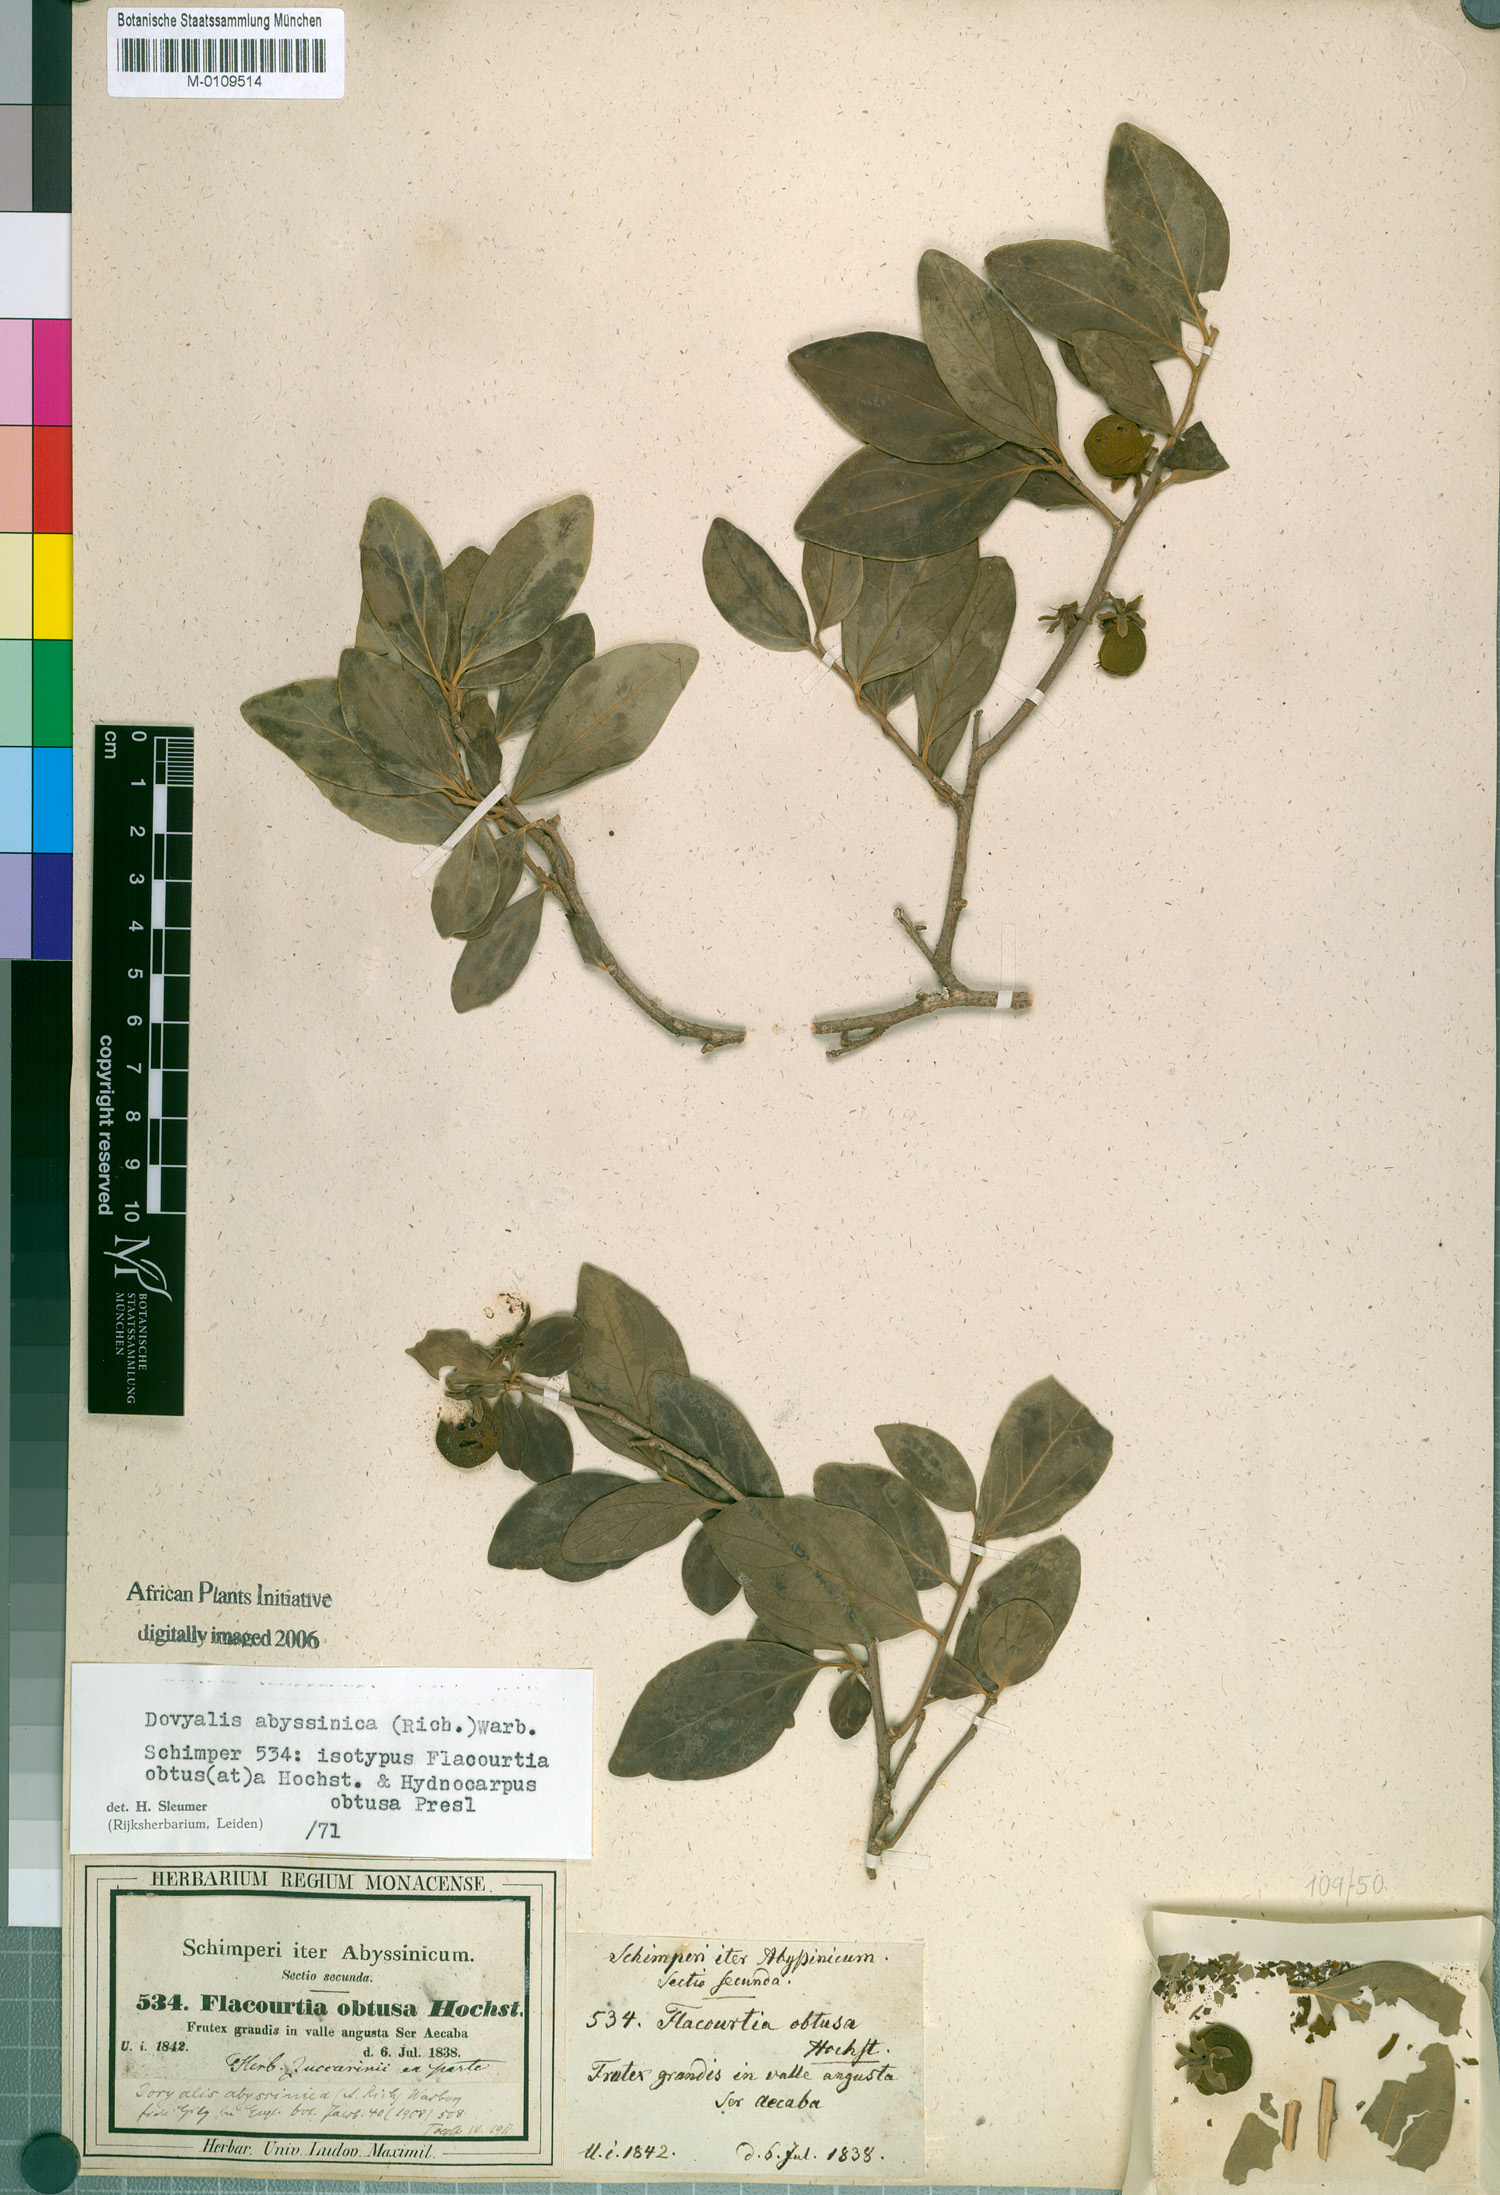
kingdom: Plantae
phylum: Tracheophyta
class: Magnoliopsida
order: Malpighiales
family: Salicaceae
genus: Dovyalis
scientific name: Dovyalis abyssinica
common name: Abyssinian-gooseberry
